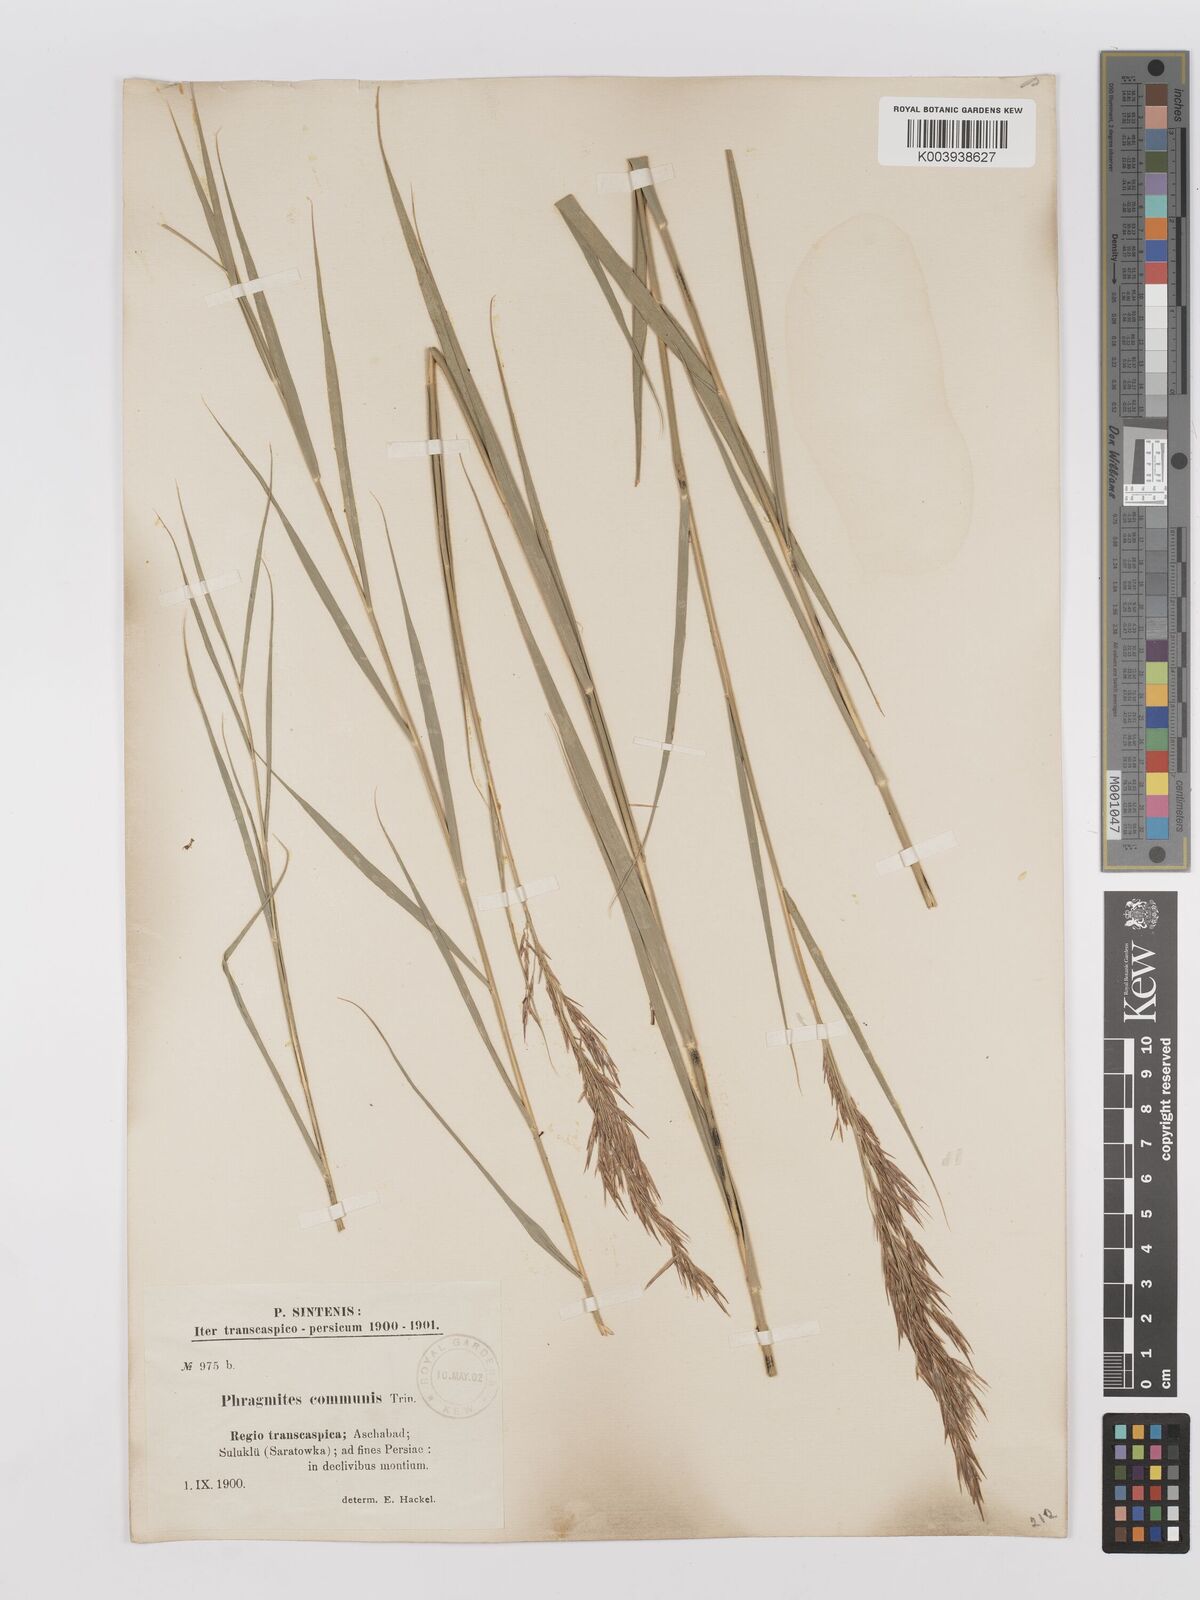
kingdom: Plantae
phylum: Tracheophyta
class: Liliopsida
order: Poales
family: Poaceae
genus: Phragmites
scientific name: Phragmites australis
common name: Common reed
